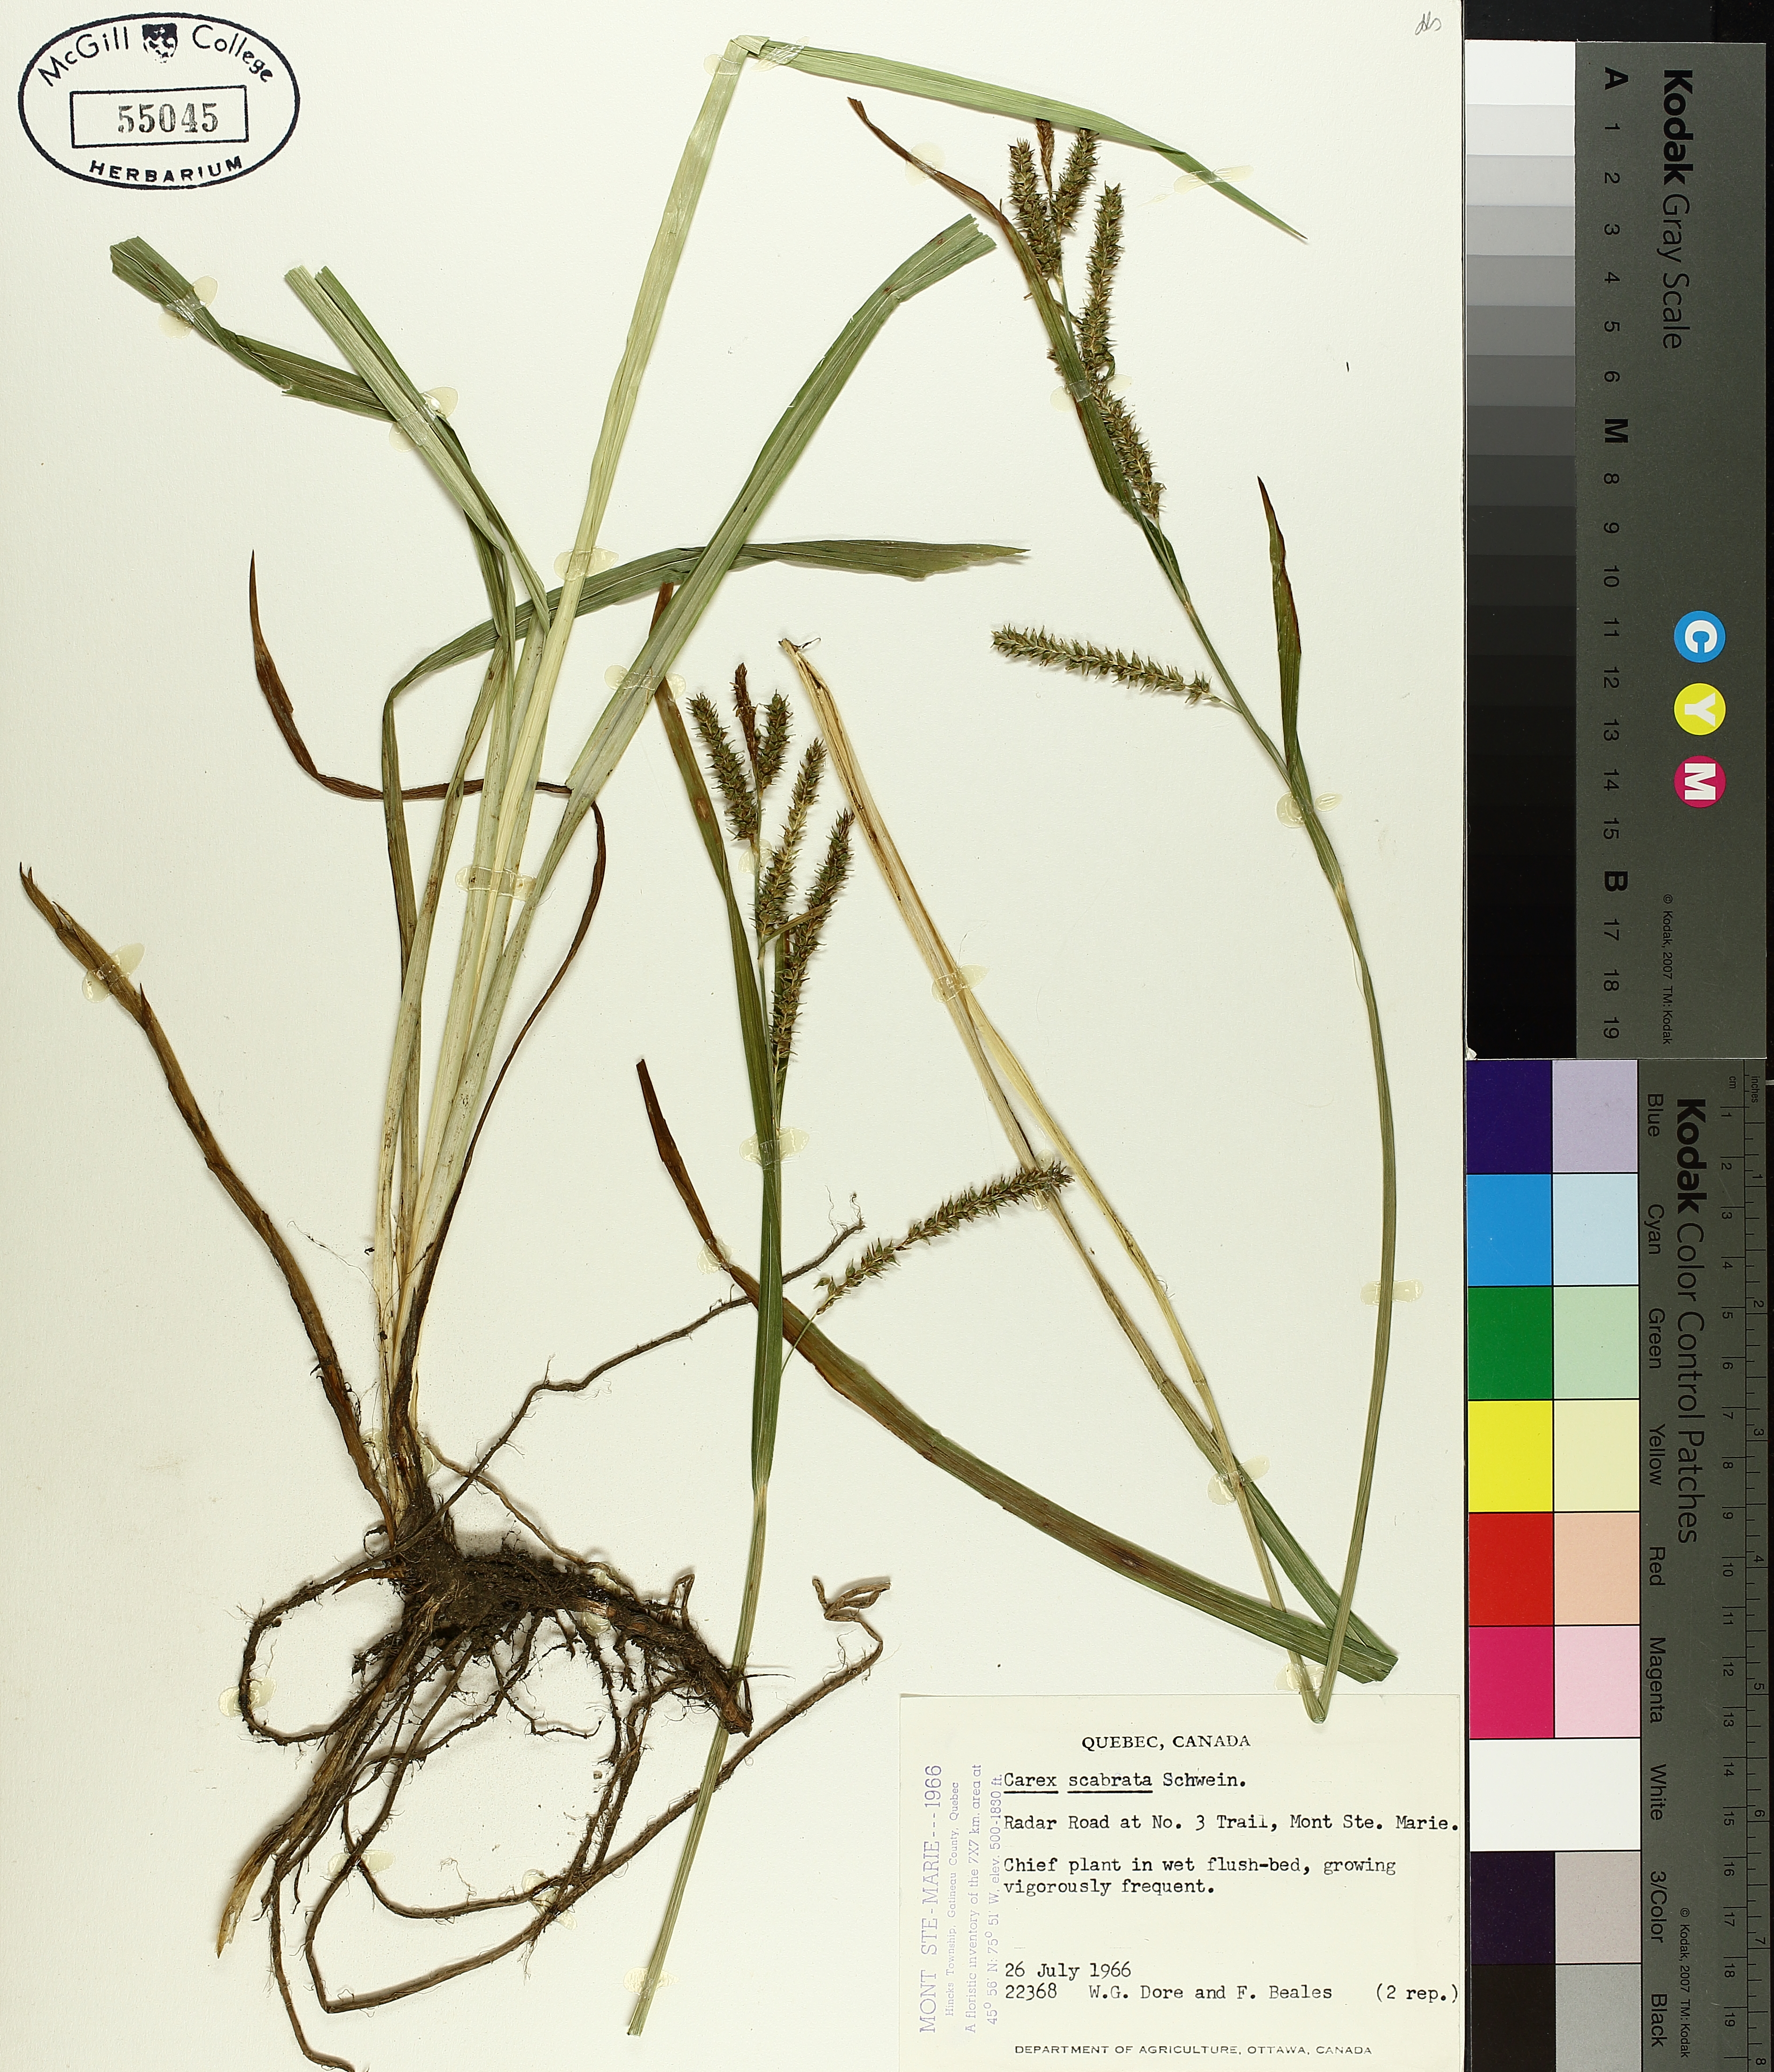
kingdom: Plantae
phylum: Tracheophyta
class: Liliopsida
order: Poales
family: Cyperaceae
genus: Carex
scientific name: Carex saxatilis
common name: Russet sedge
